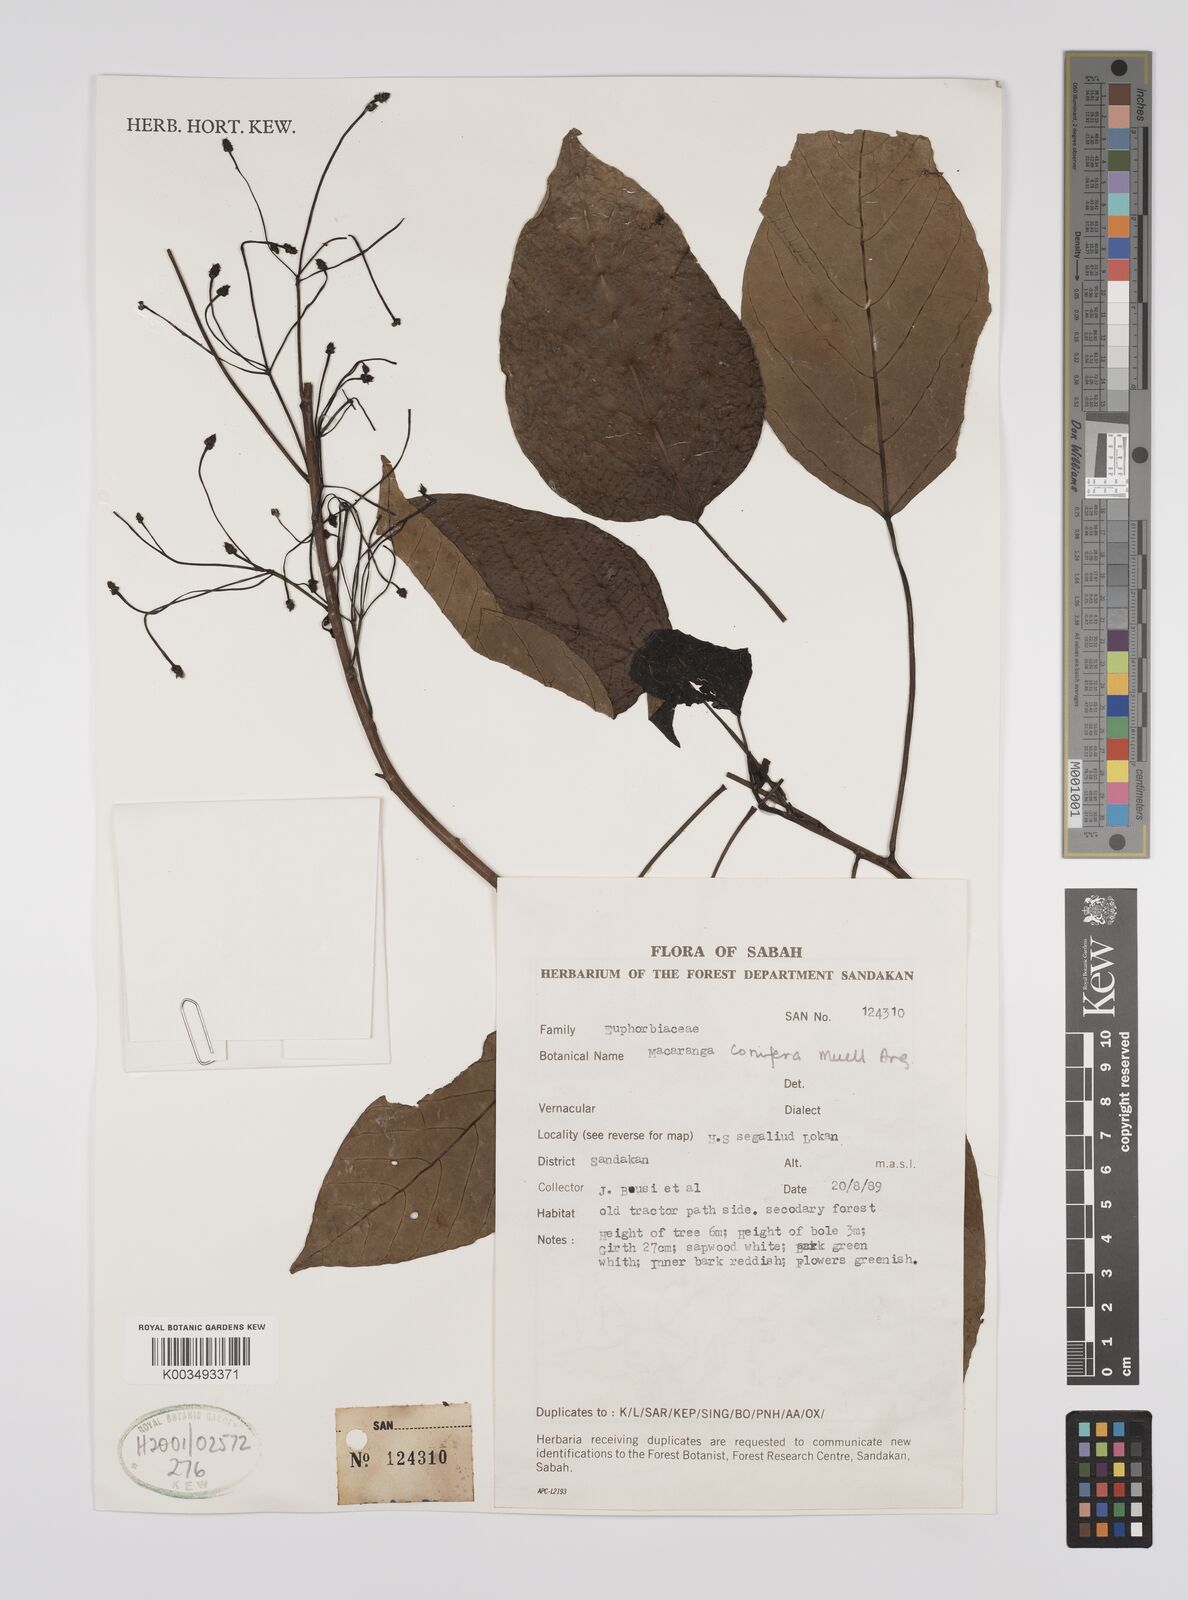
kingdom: Plantae
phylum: Tracheophyta
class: Magnoliopsida
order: Malpighiales
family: Euphorbiaceae
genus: Macaranga
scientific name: Macaranga conifera
